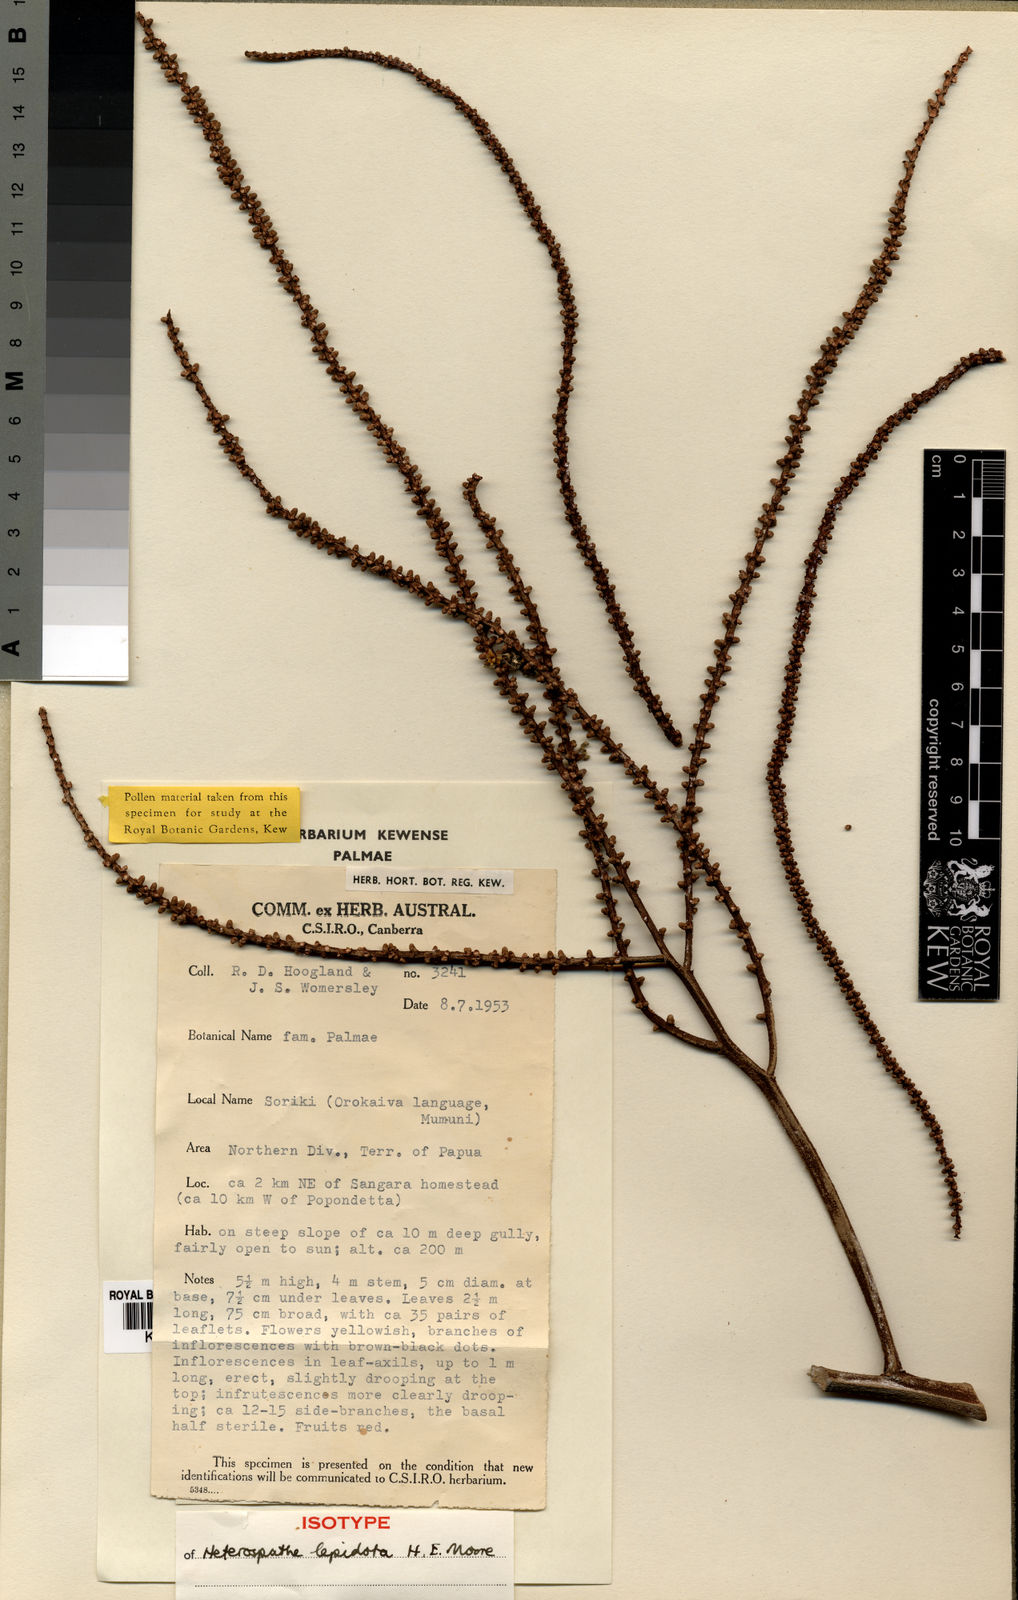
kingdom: Plantae
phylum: Tracheophyta
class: Liliopsida
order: Arecales
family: Arecaceae
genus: Heterospathe
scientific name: Heterospathe lepidota
